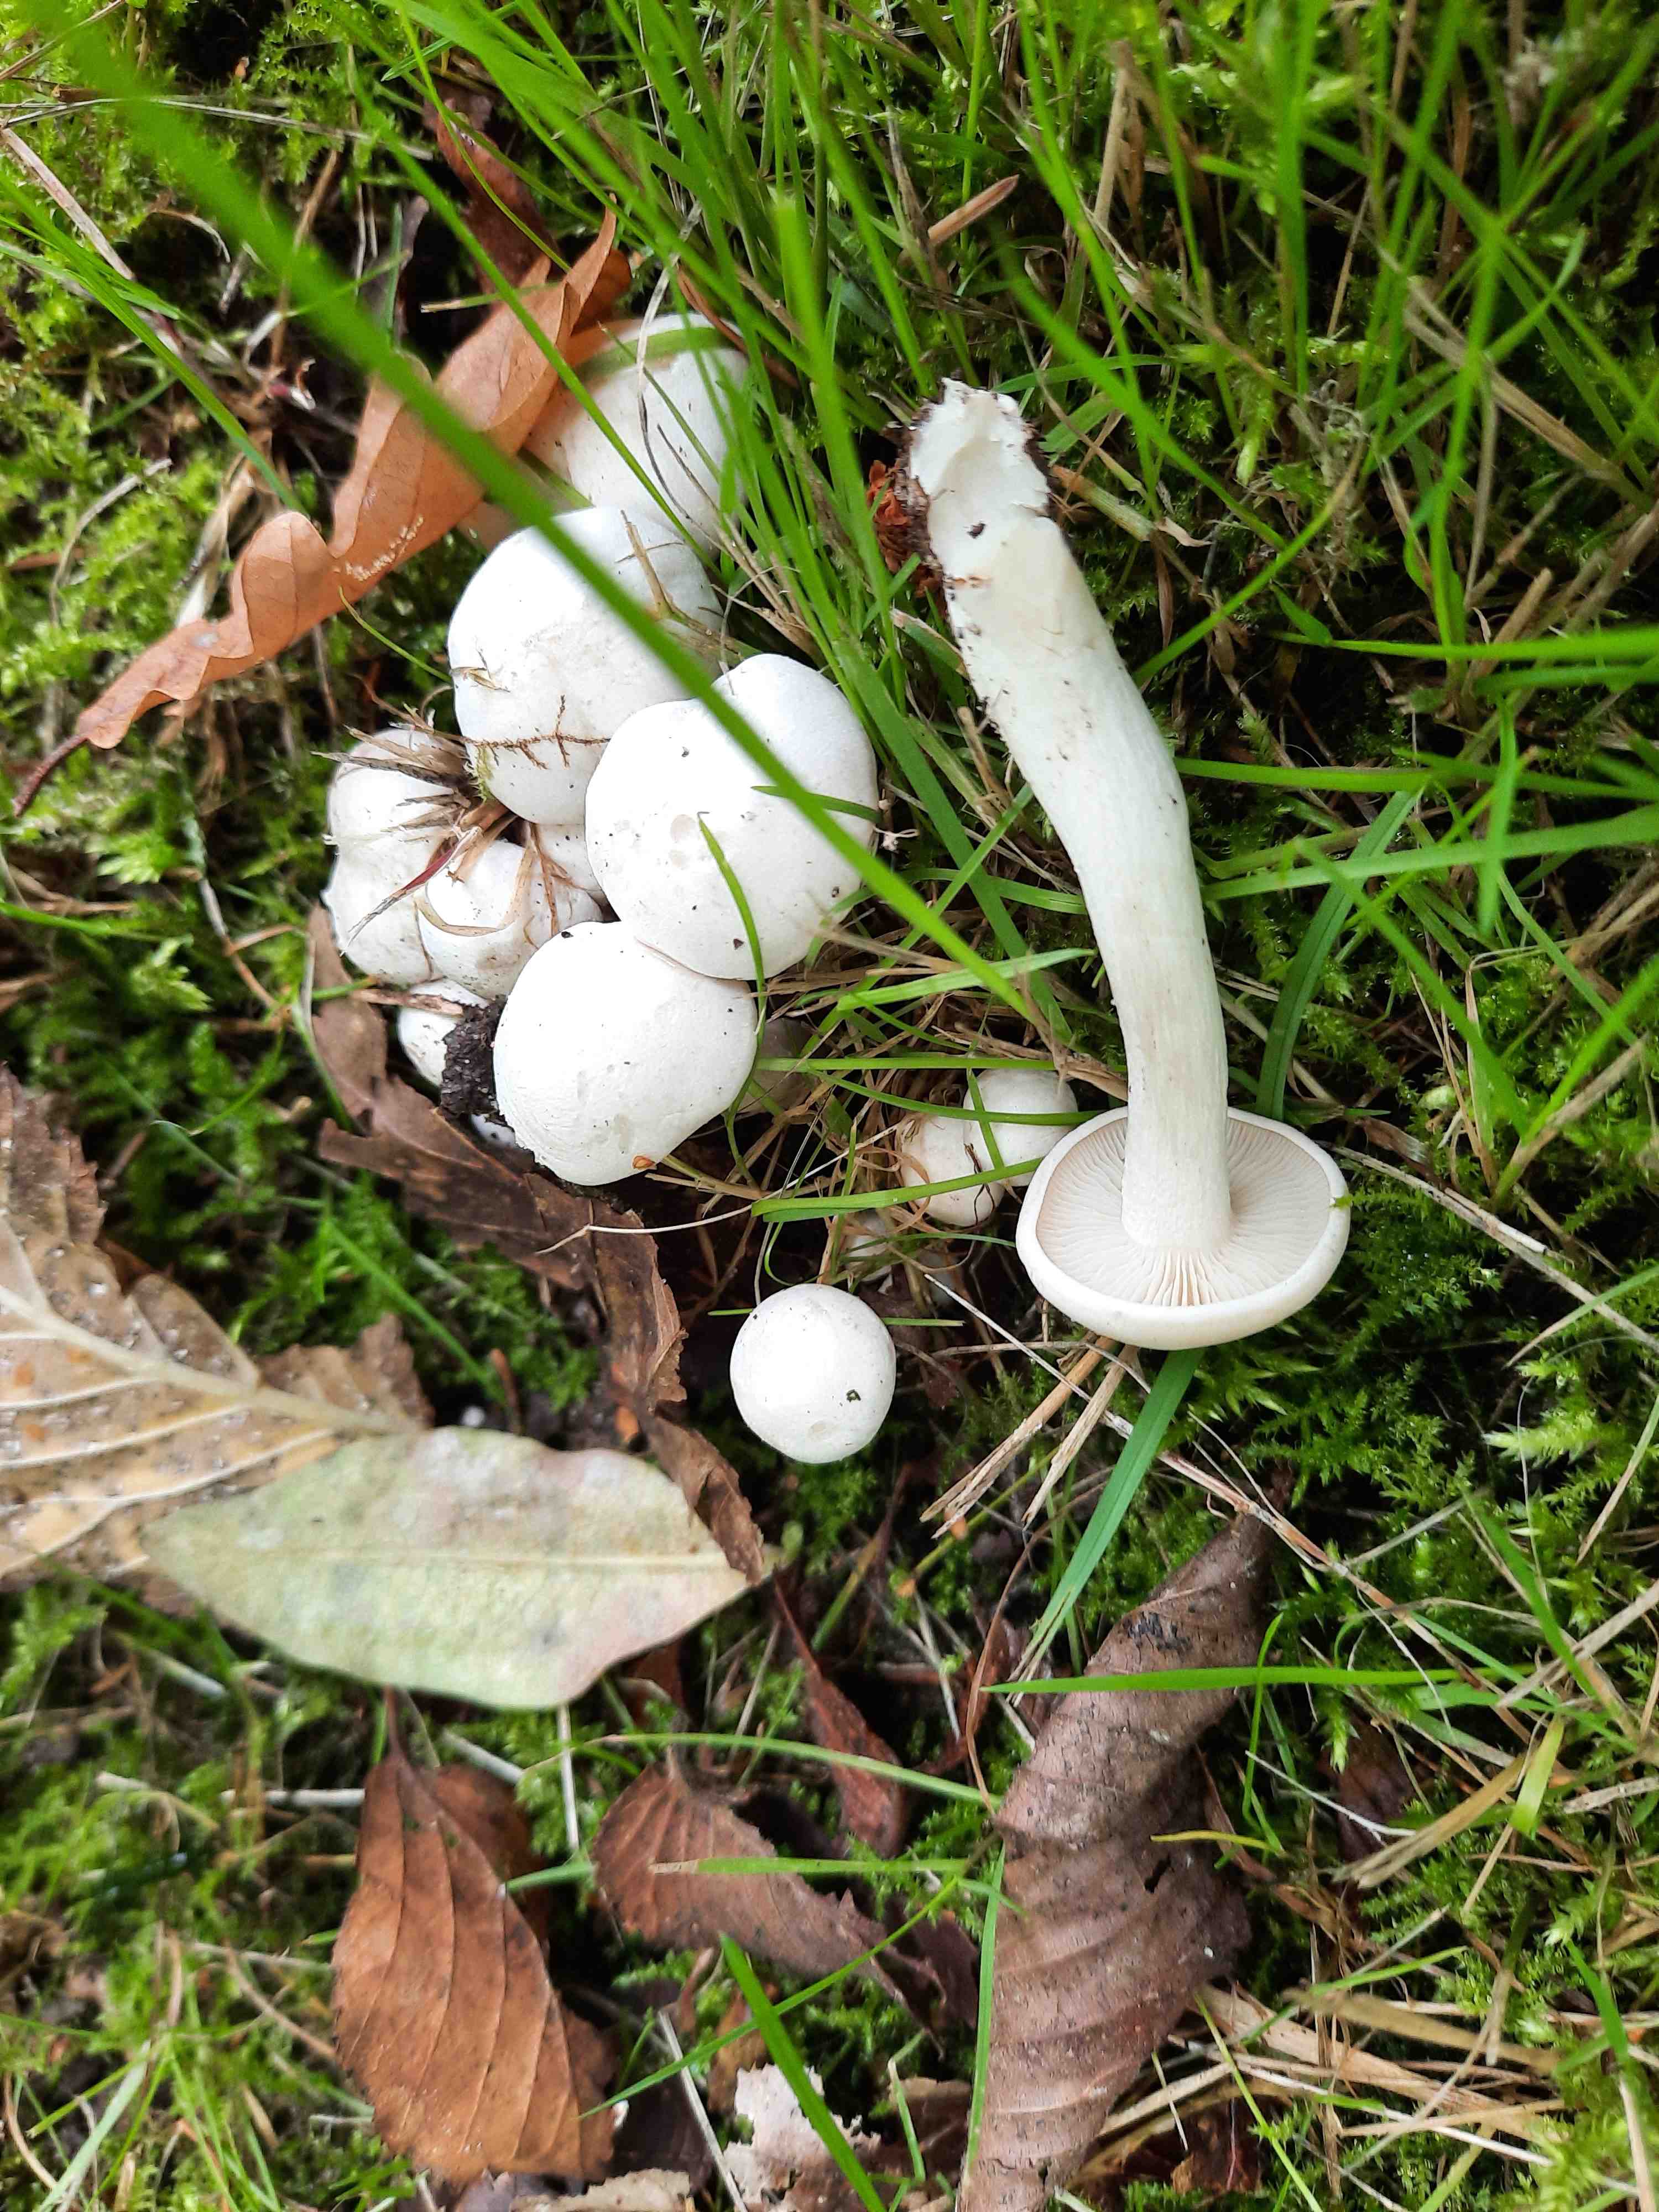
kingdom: Fungi
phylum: Basidiomycota
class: Agaricomycetes
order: Agaricales
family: Tricholomataceae
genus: Leucocybe
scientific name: Leucocybe connata
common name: knippe-tragthat
